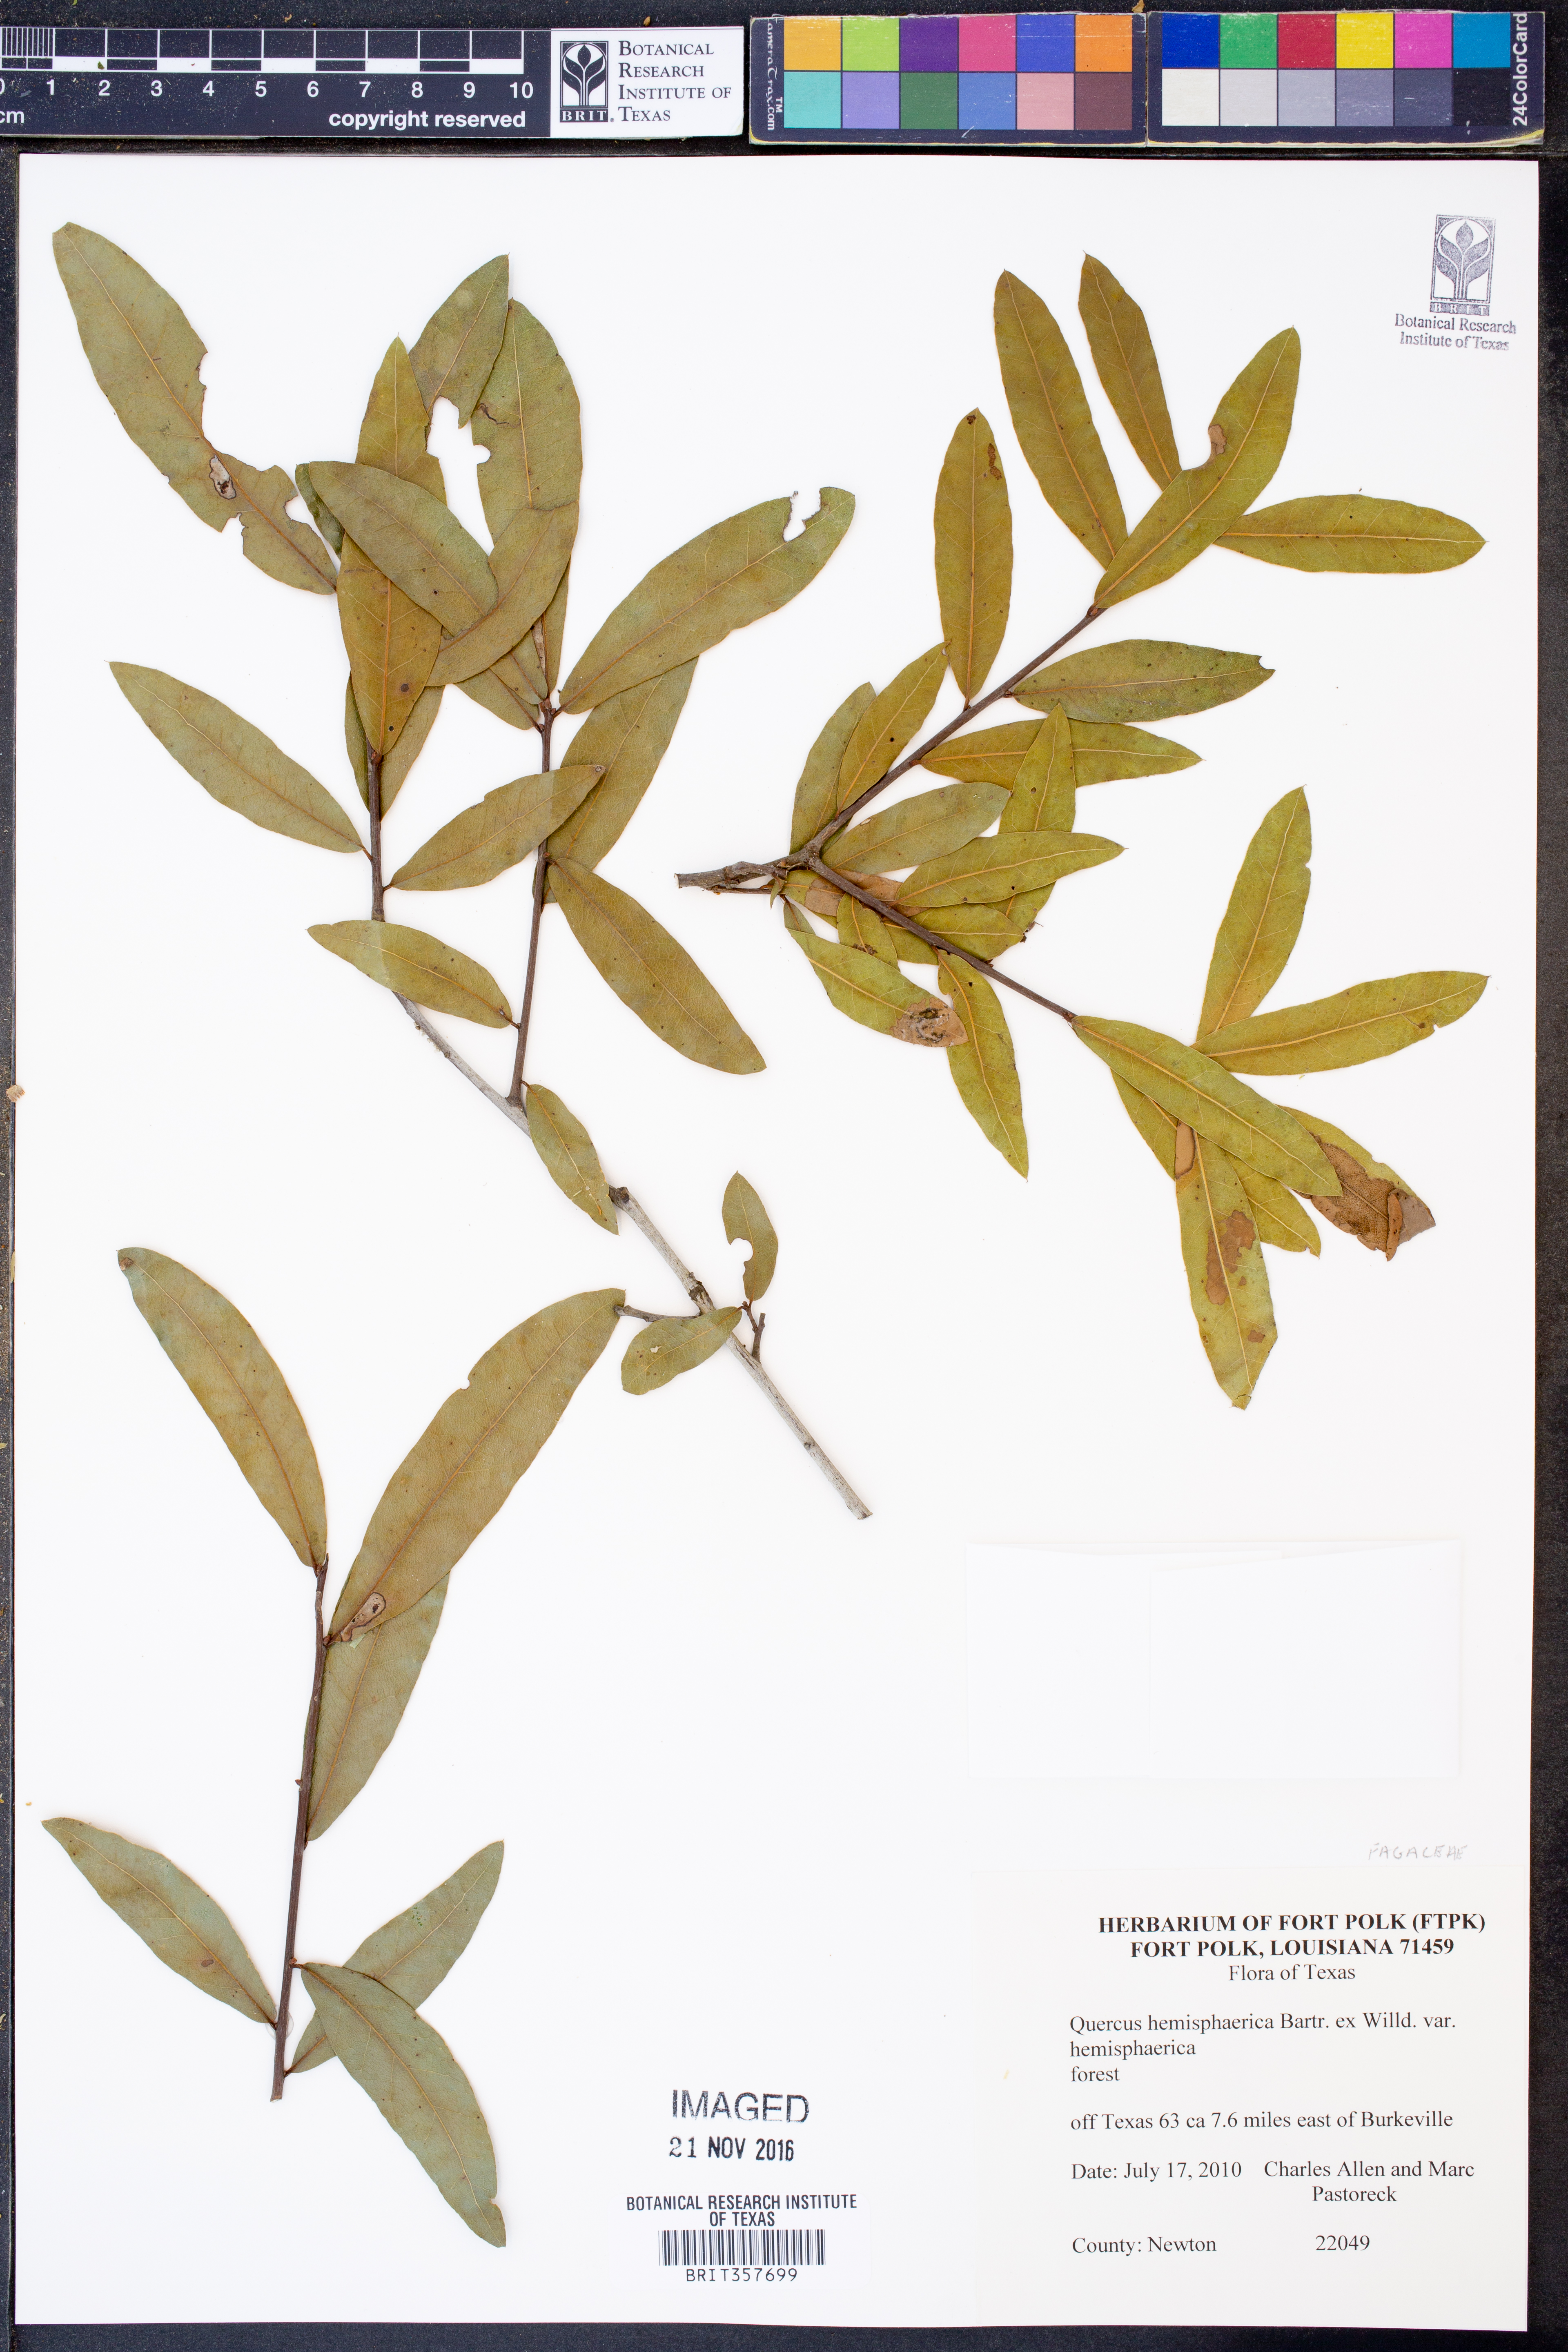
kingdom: Plantae
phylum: Tracheophyta
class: Magnoliopsida
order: Fagales
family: Fagaceae
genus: Quercus
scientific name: Quercus hemisphaerica
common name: Darlington oak
